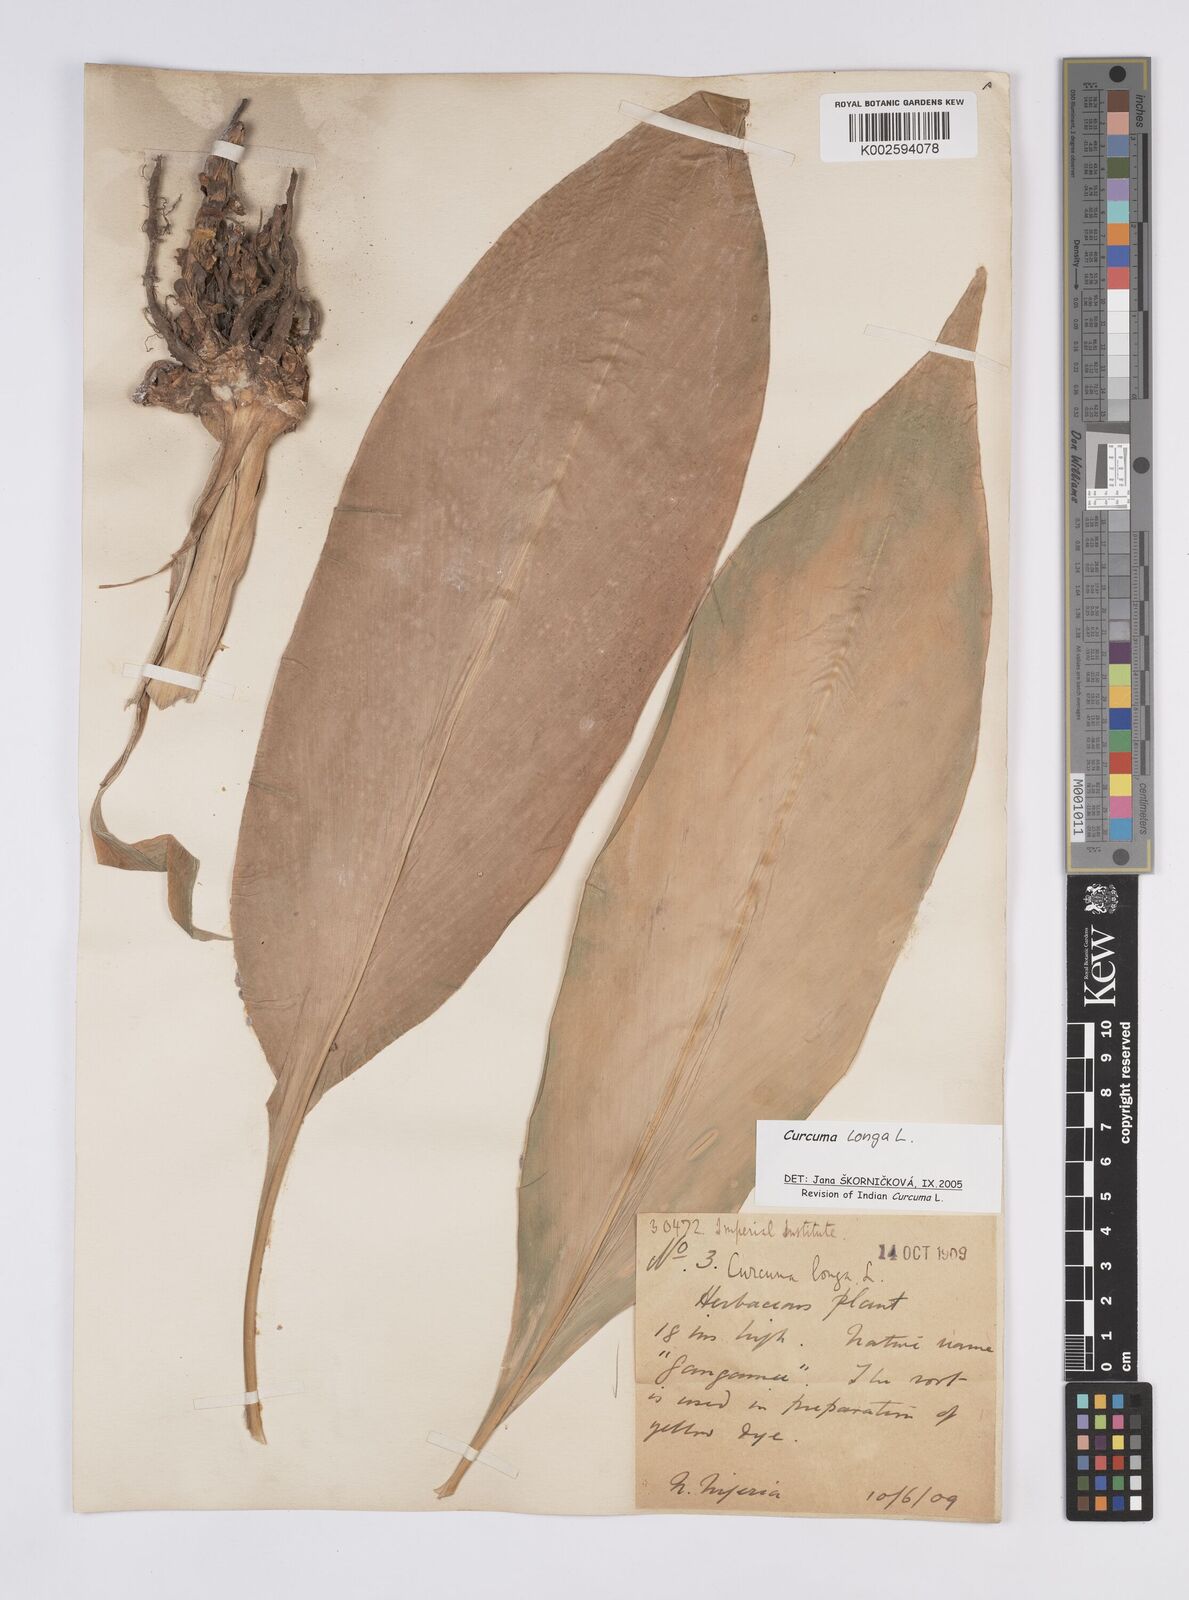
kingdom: Plantae
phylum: Tracheophyta
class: Liliopsida
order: Zingiberales
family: Zingiberaceae
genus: Curcuma
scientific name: Curcuma longa
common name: Turmeric
